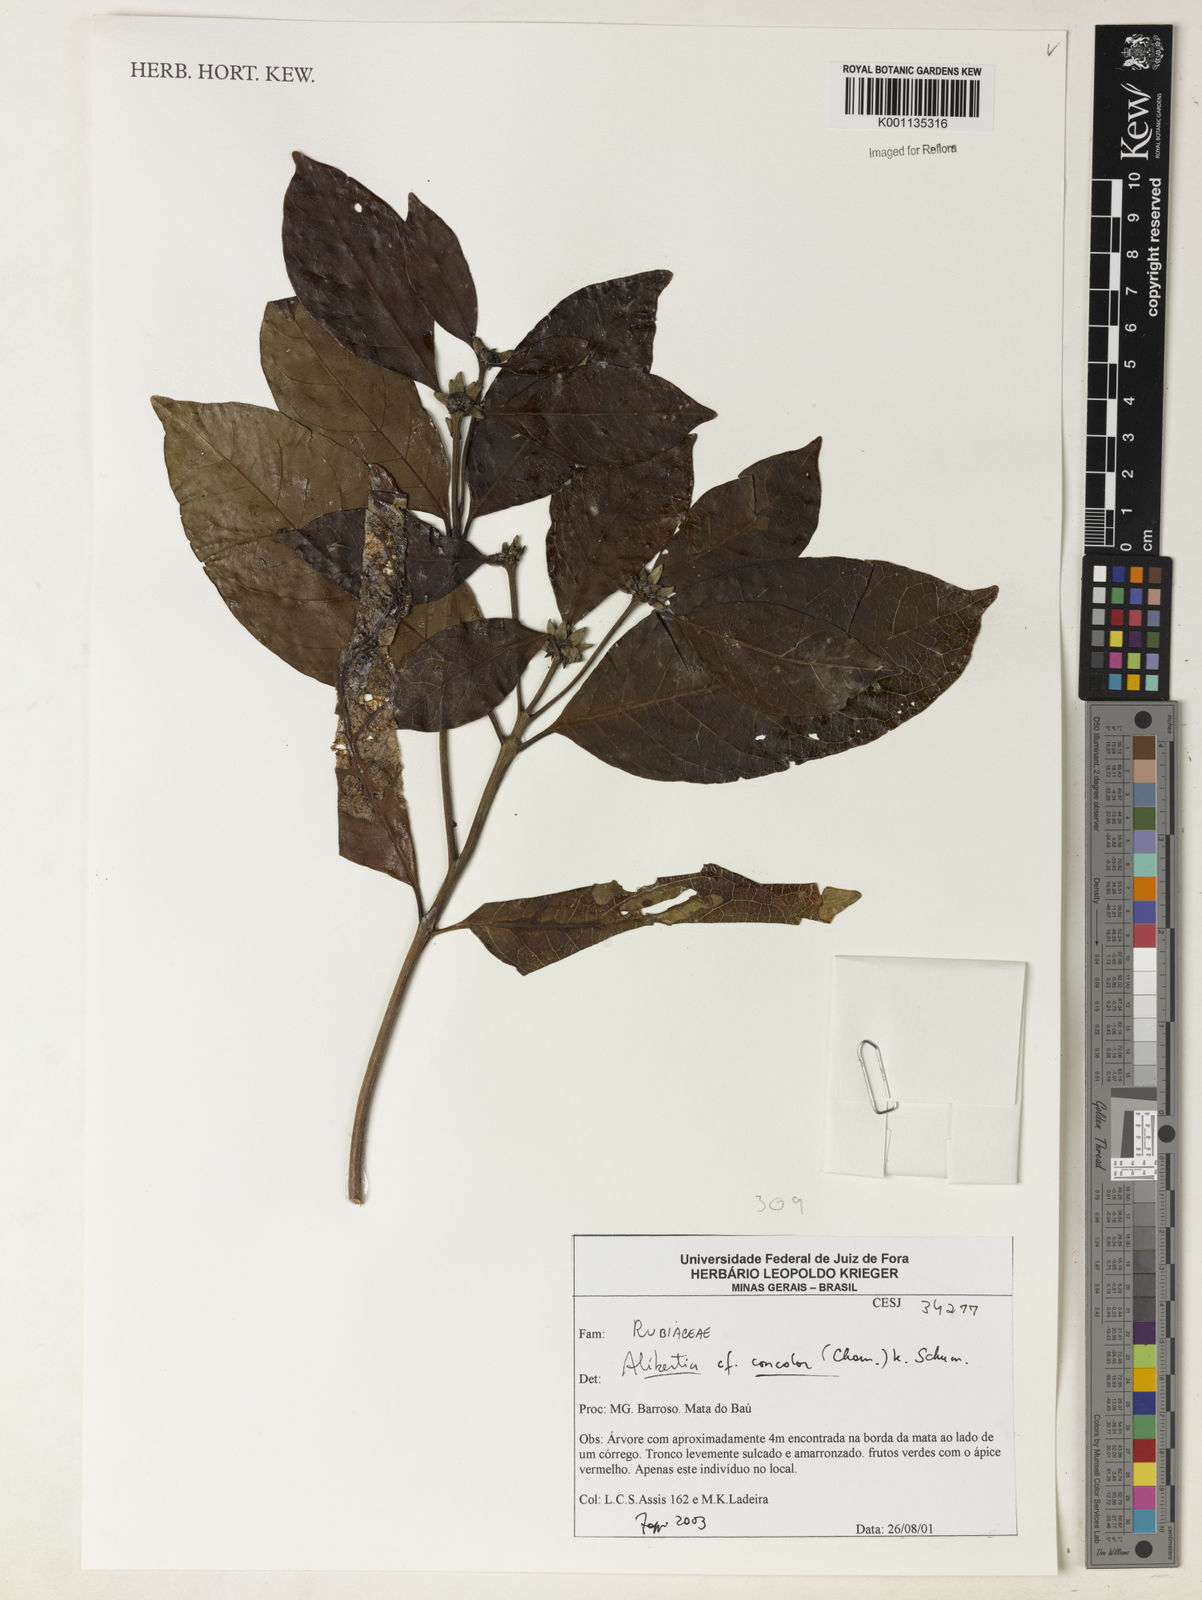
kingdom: Plantae
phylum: Tracheophyta
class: Magnoliopsida
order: Gentianales
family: Rubiaceae
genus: Cordiera
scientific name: Cordiera concolor
